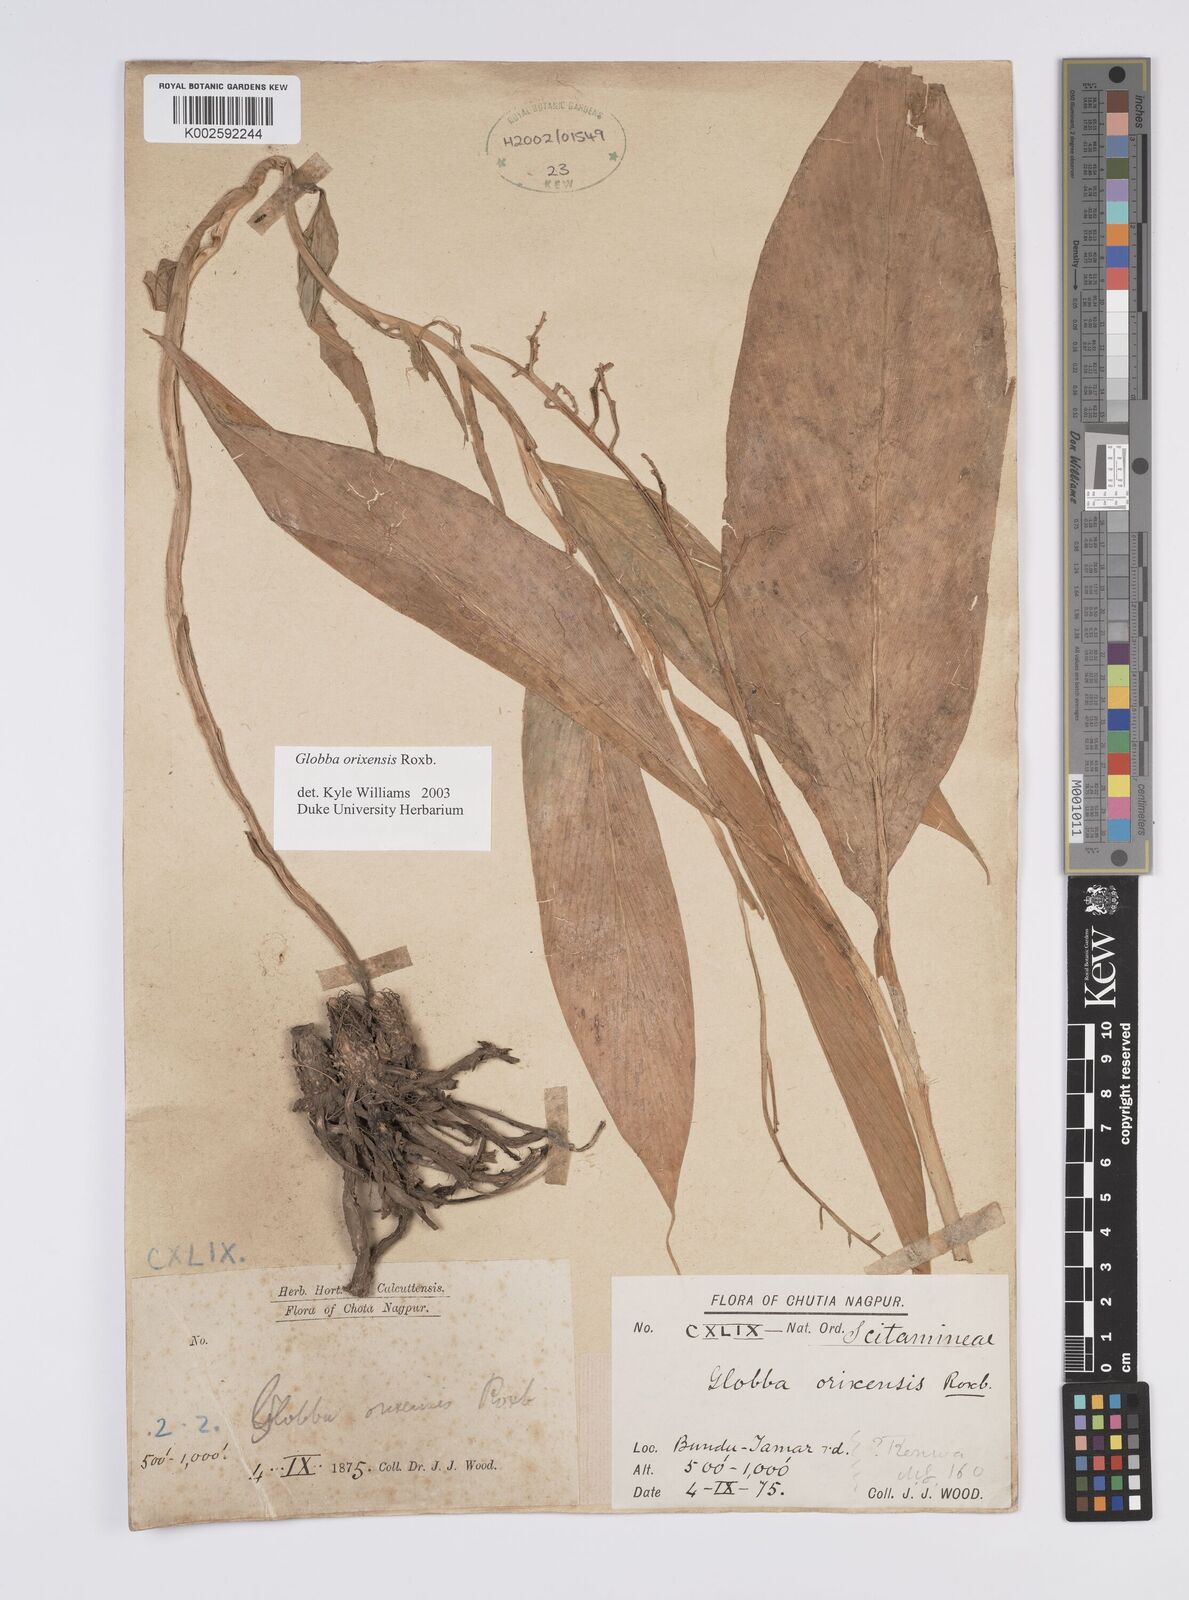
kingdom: Plantae
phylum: Tracheophyta
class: Liliopsida
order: Zingiberales
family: Zingiberaceae
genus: Globba
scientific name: Globba orixensis
